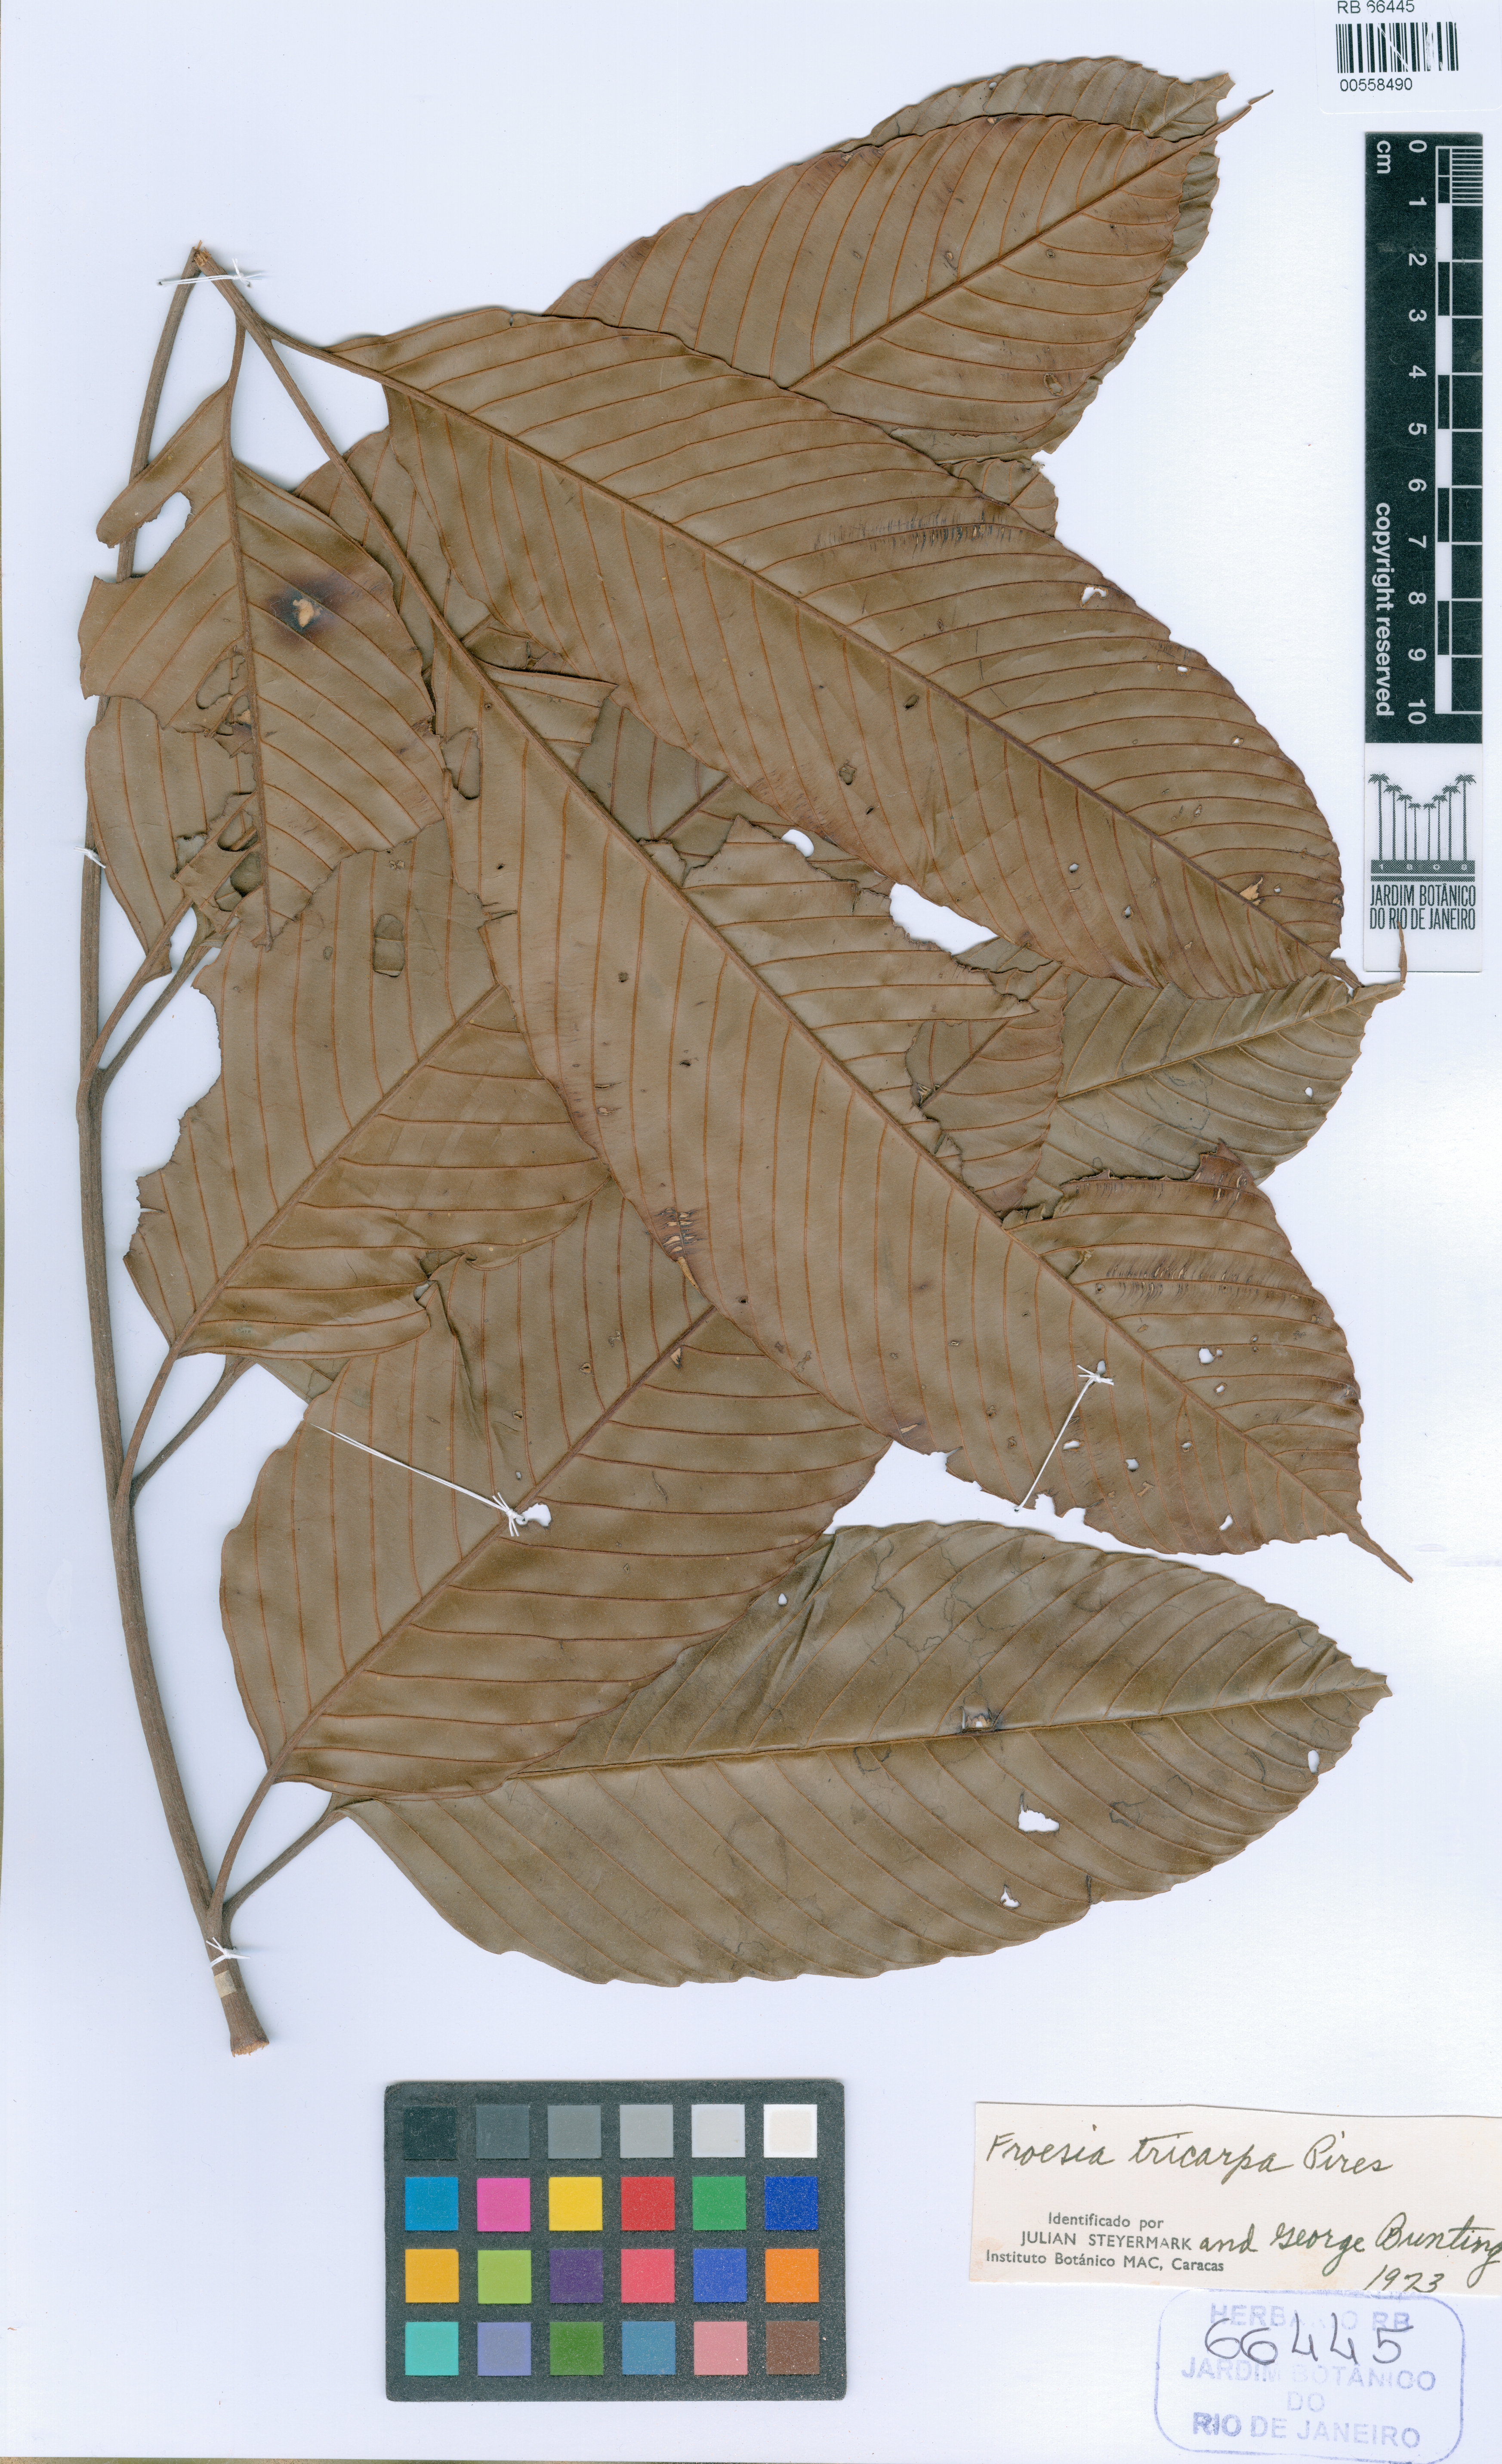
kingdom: Plantae
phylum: Tracheophyta
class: Magnoliopsida
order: Malpighiales
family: Quiinaceae
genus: Froesia
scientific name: Froesia tricarpa
